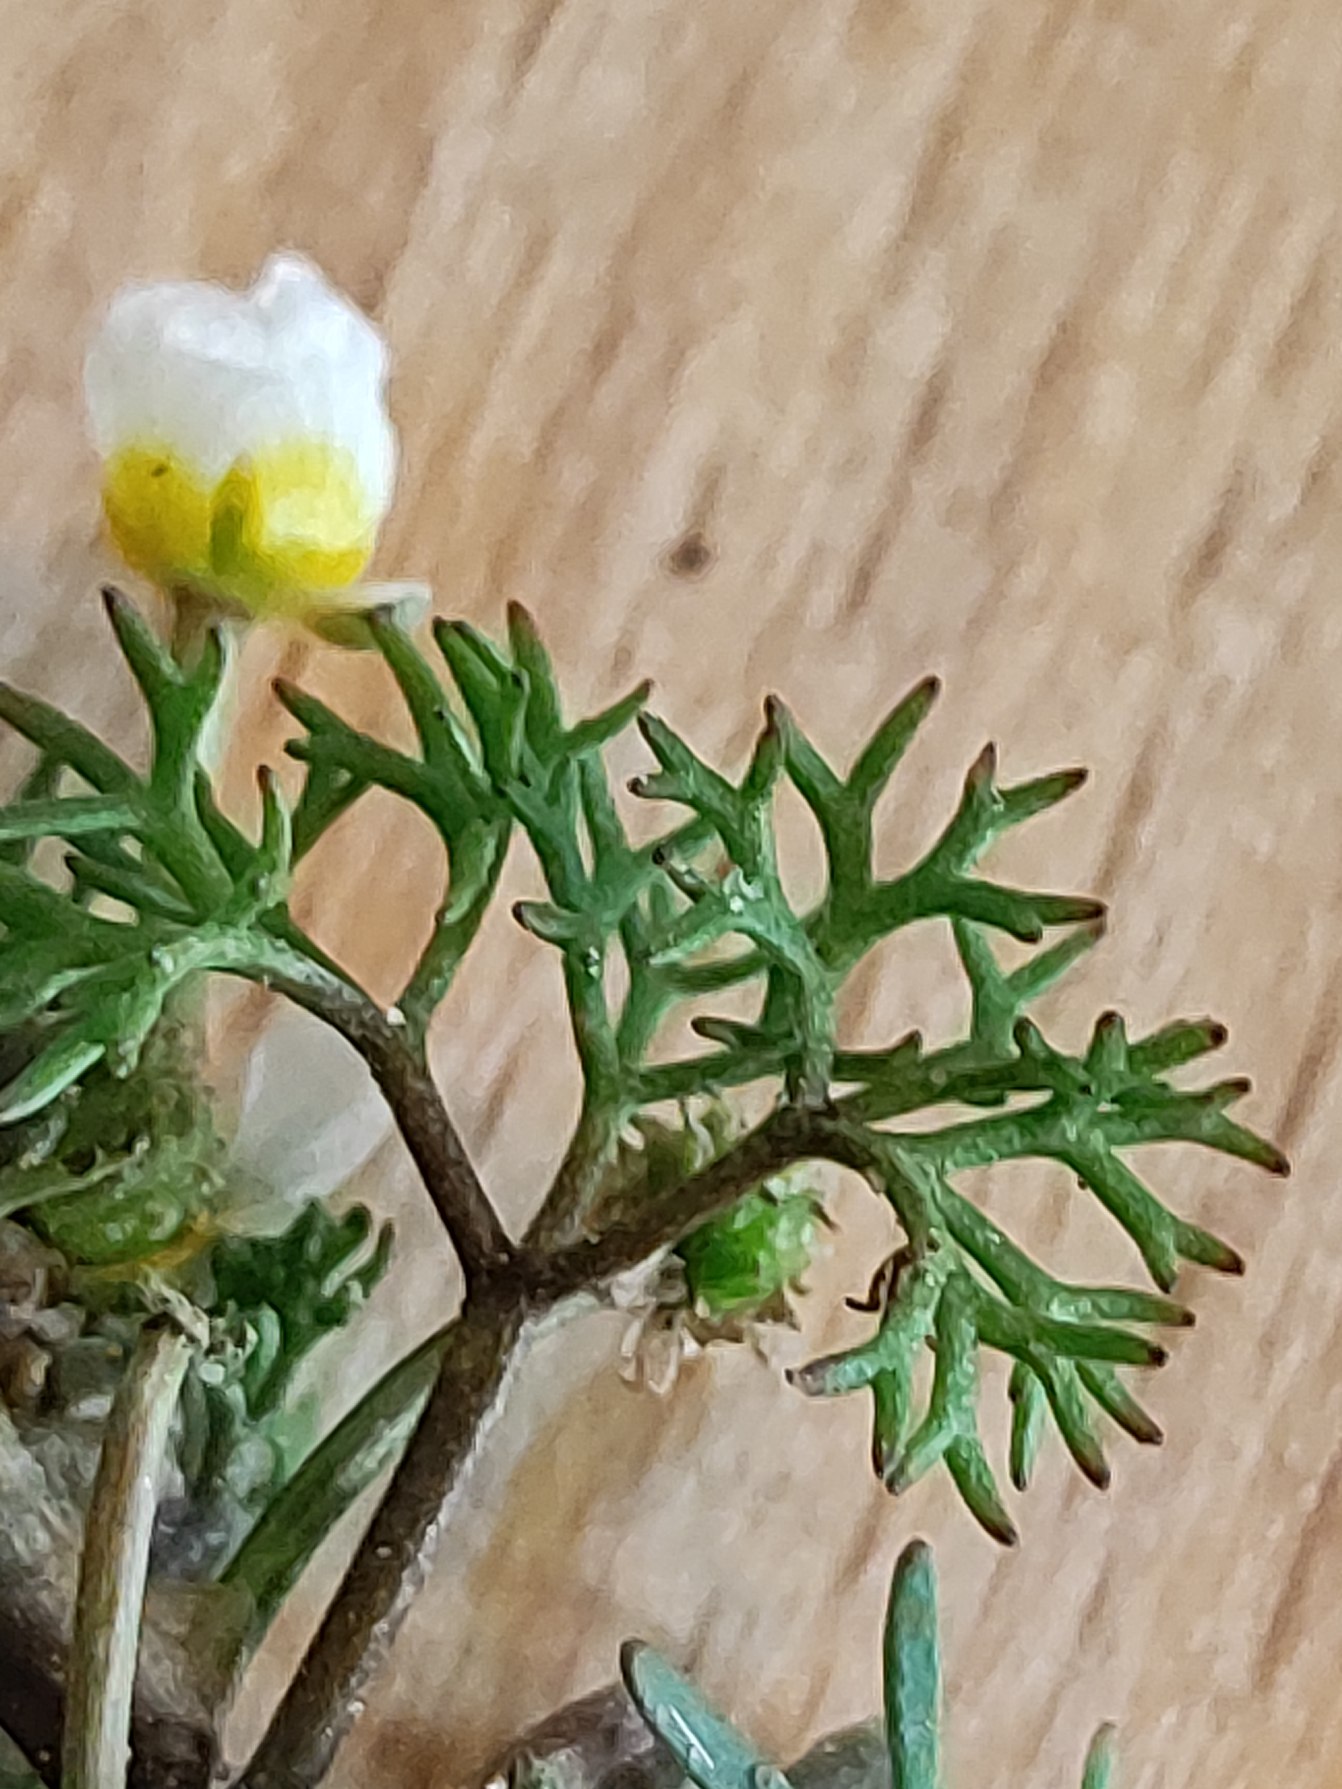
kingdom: Plantae
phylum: Tracheophyta
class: Magnoliopsida
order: Ranunculales
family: Ranunculaceae
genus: Ranunculus
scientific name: Ranunculus
